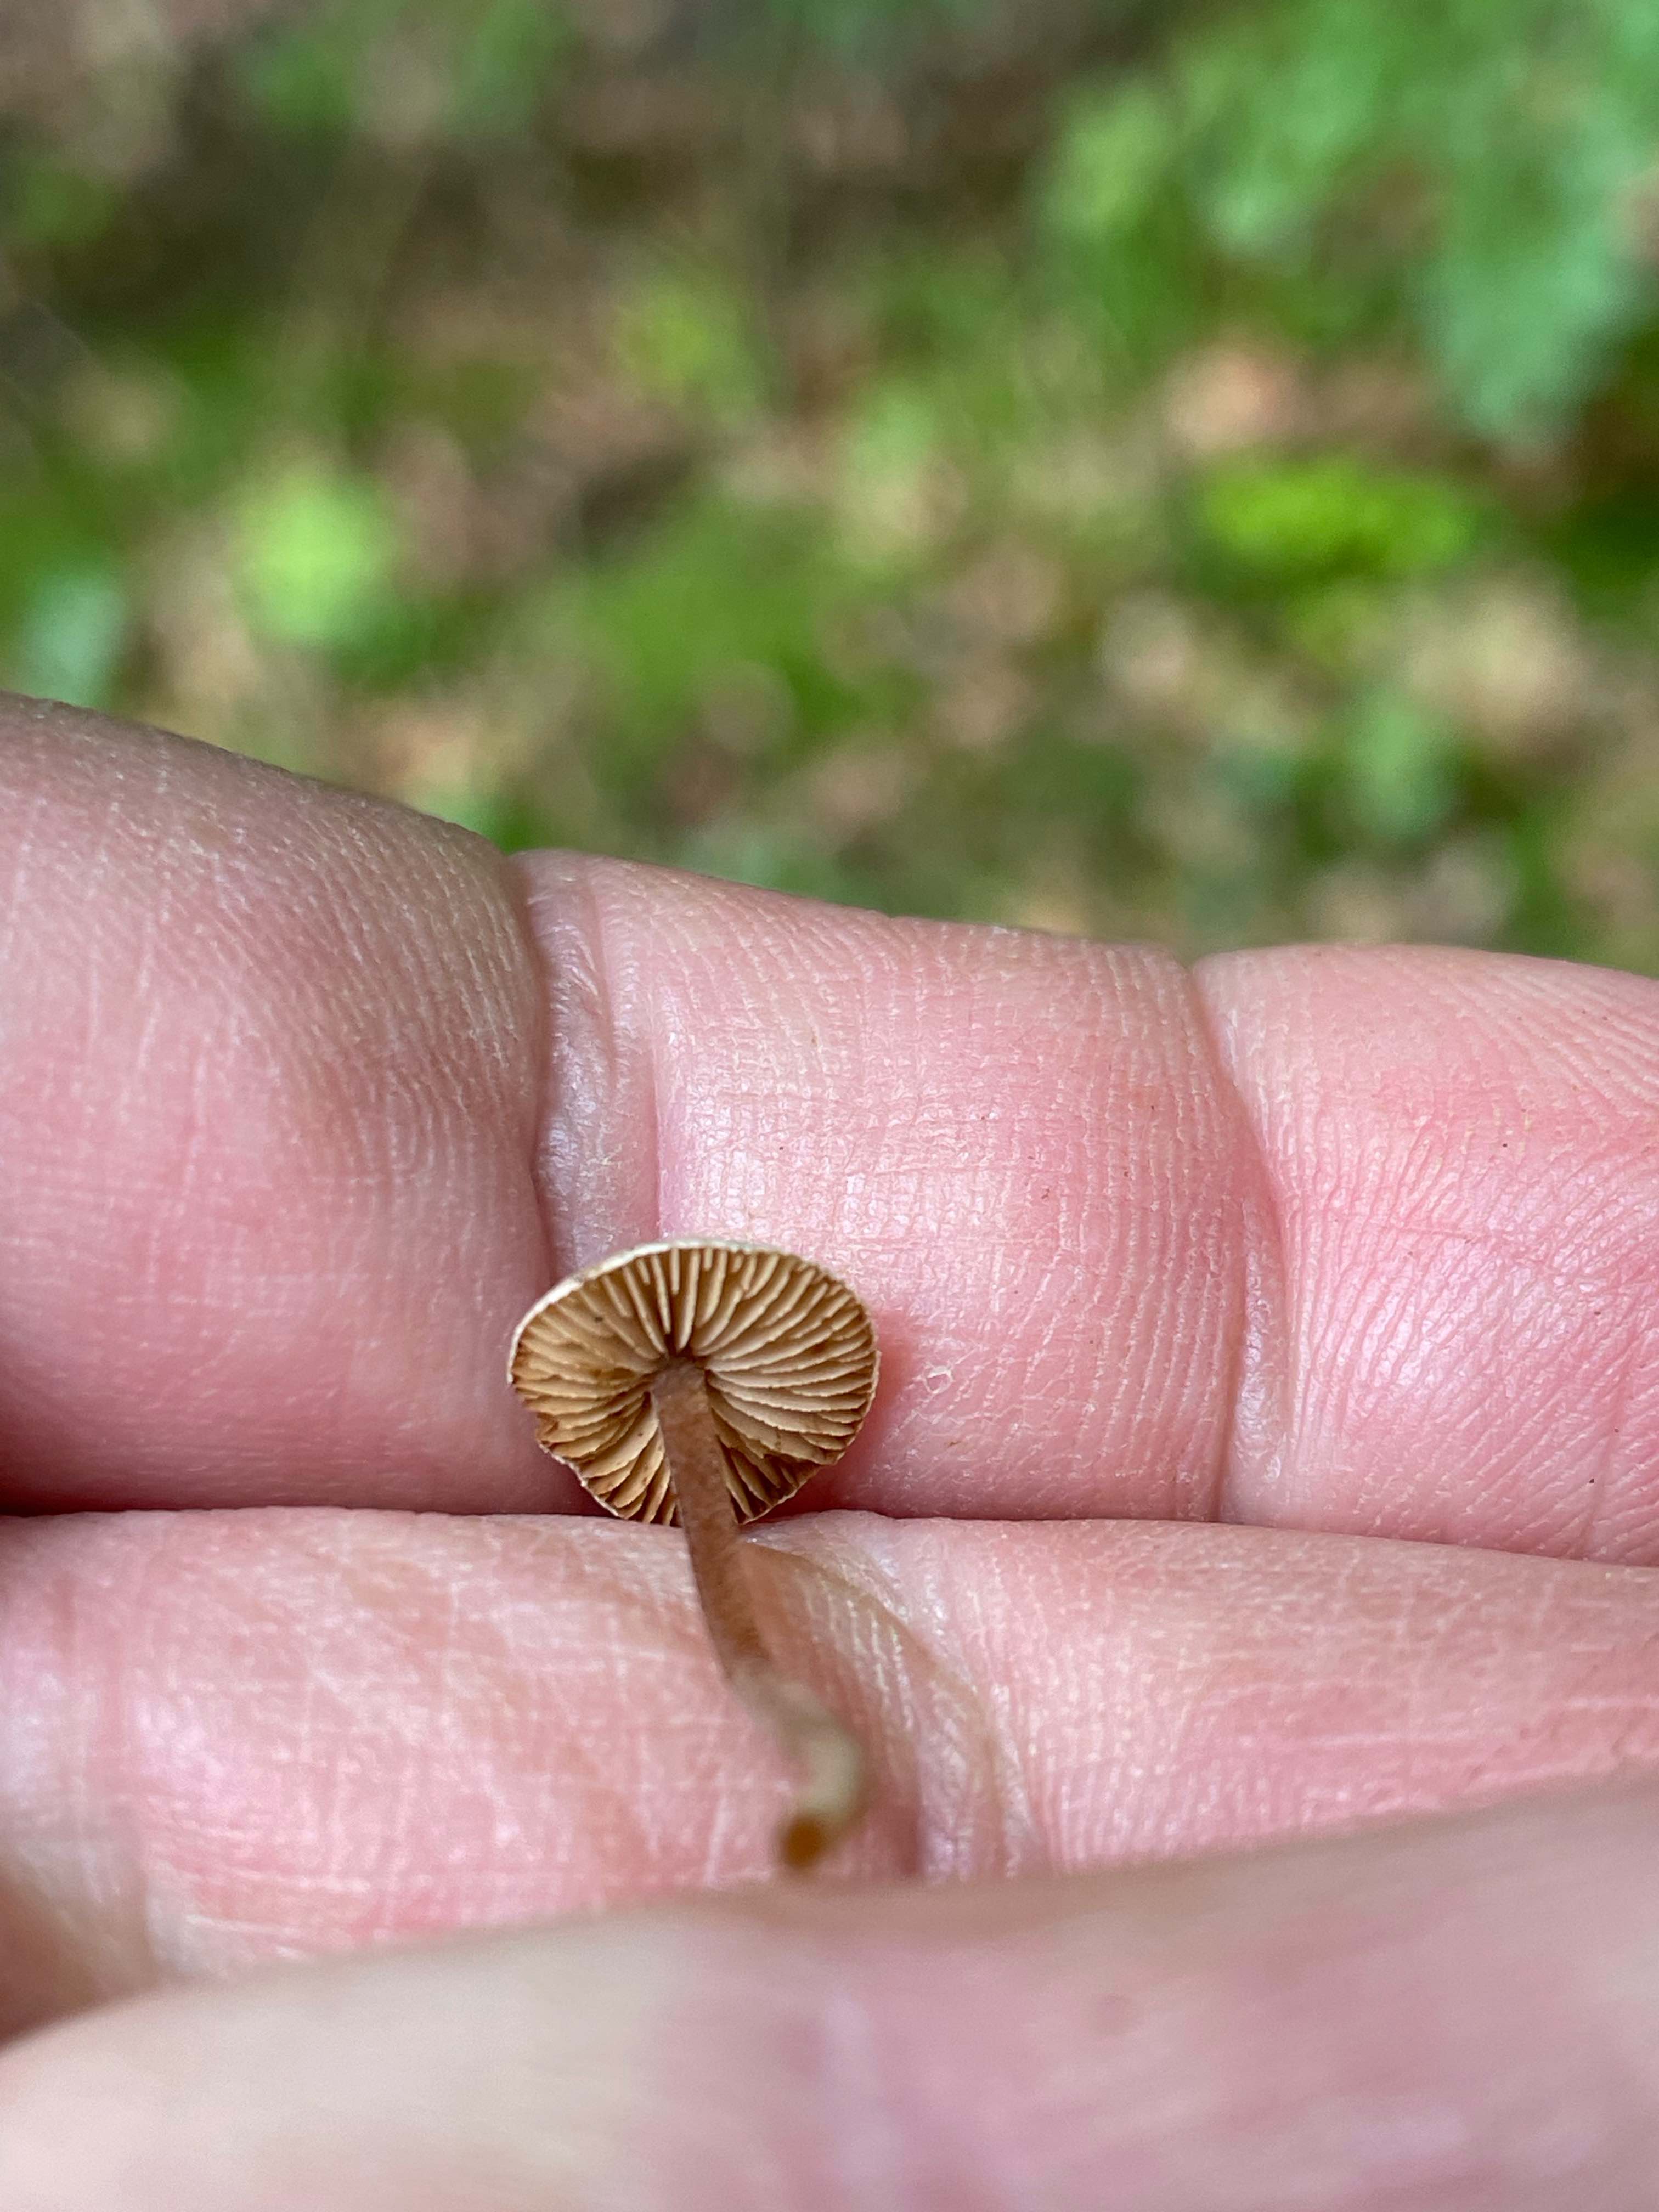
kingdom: Fungi
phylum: Basidiomycota
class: Agaricomycetes
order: Agaricales
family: Inocybaceae
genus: Inocybe
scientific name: Inocybe
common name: trævlhat
